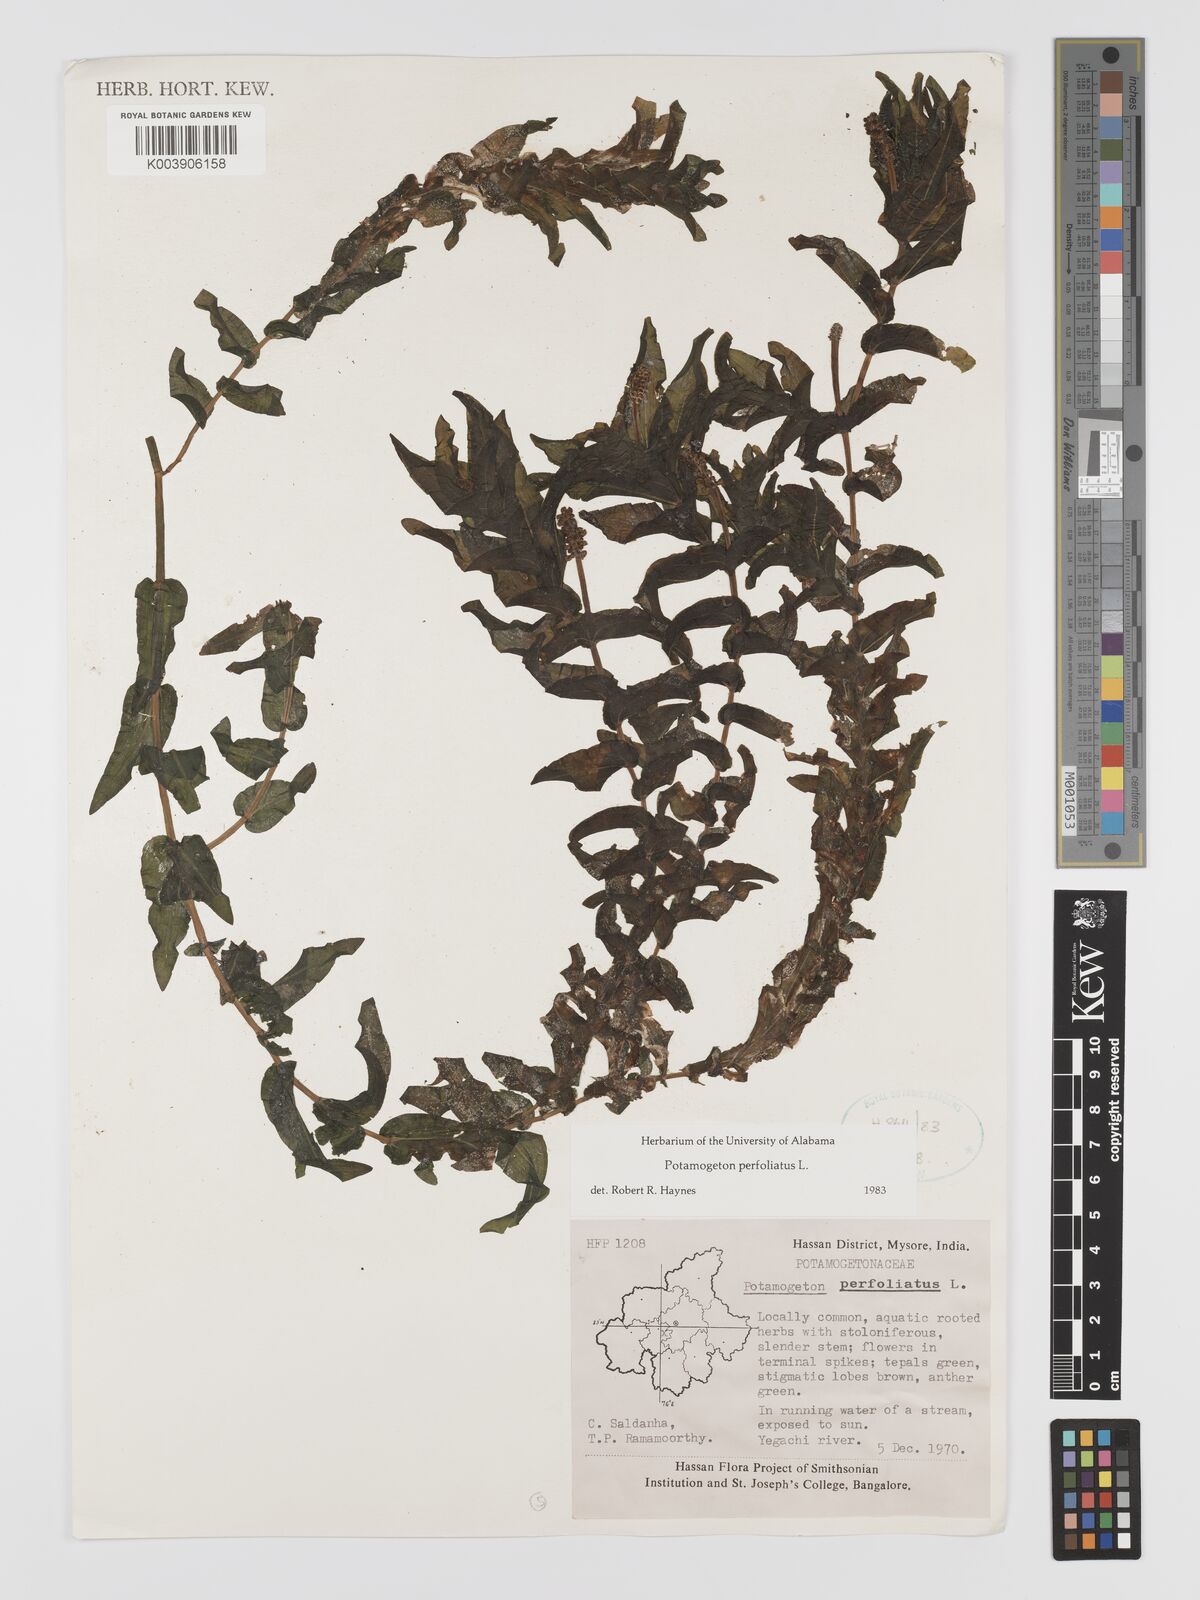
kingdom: Plantae
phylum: Tracheophyta
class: Liliopsida
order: Alismatales
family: Potamogetonaceae
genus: Stuckenia
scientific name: Stuckenia pectinata
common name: Sago pondweed
